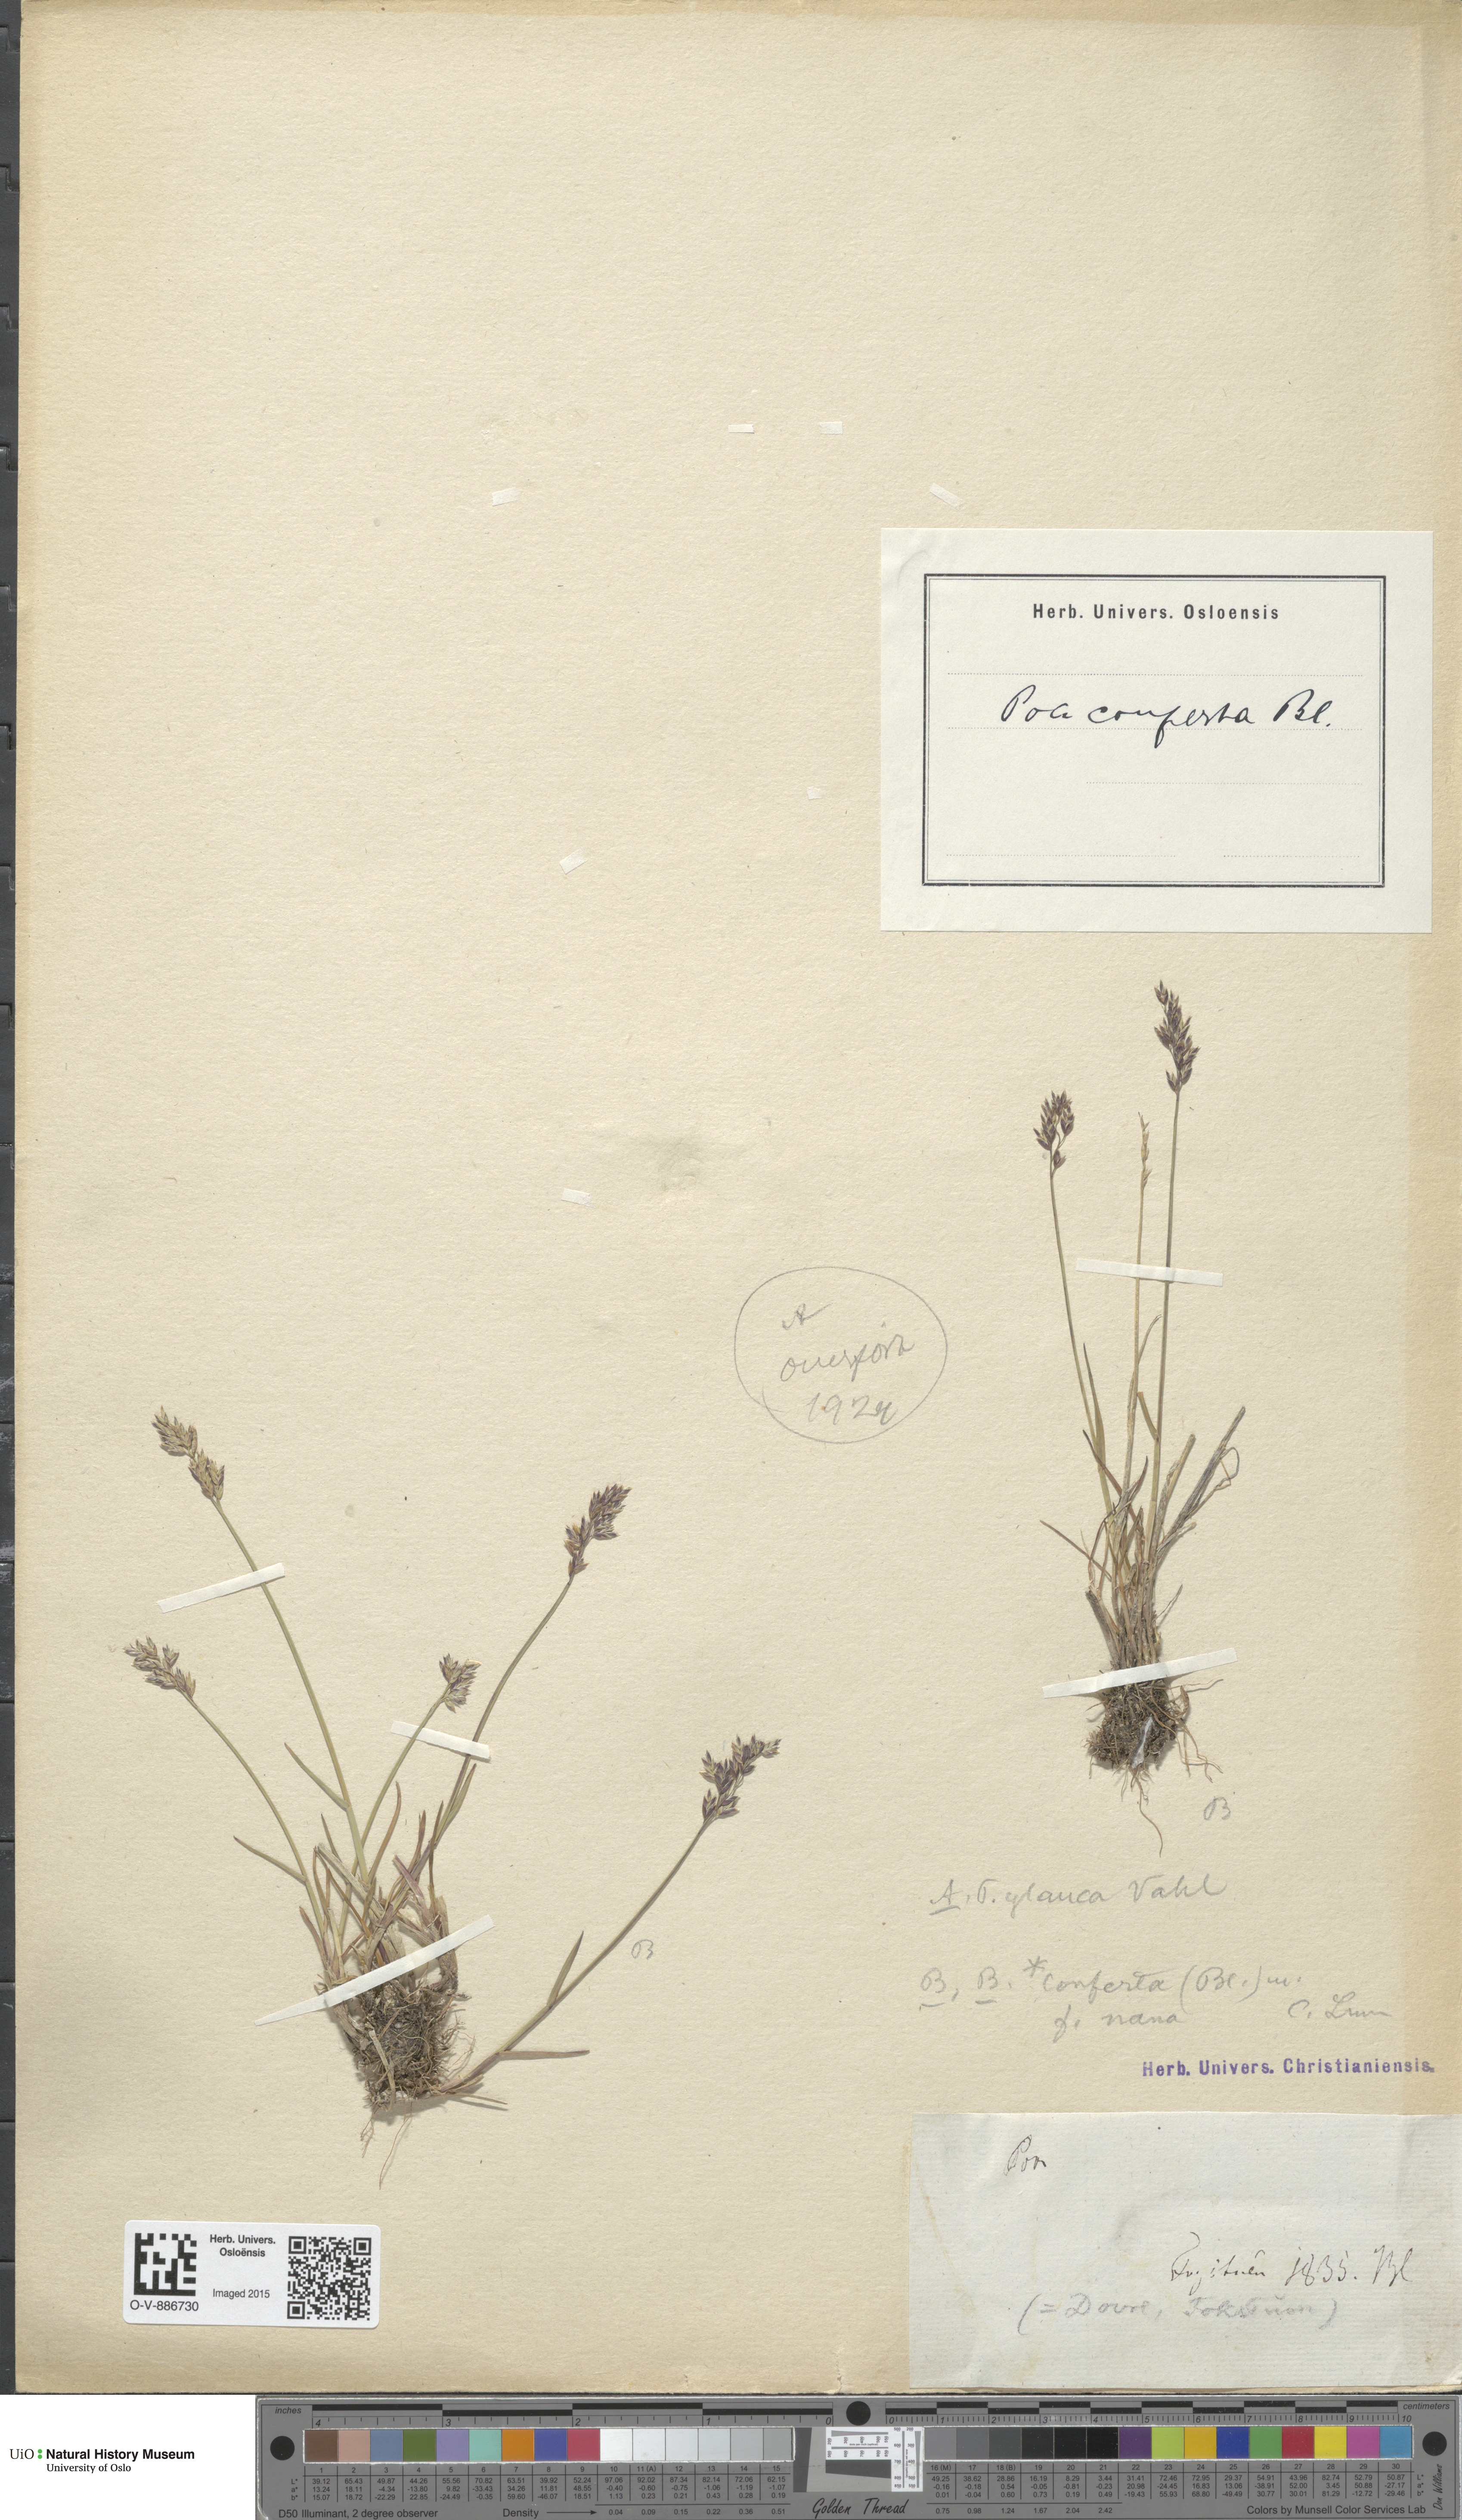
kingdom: Plantae
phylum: Tracheophyta
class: Liliopsida
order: Poales
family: Poaceae
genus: Poa
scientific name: Poa glauca
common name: Glaucous bluegrass
